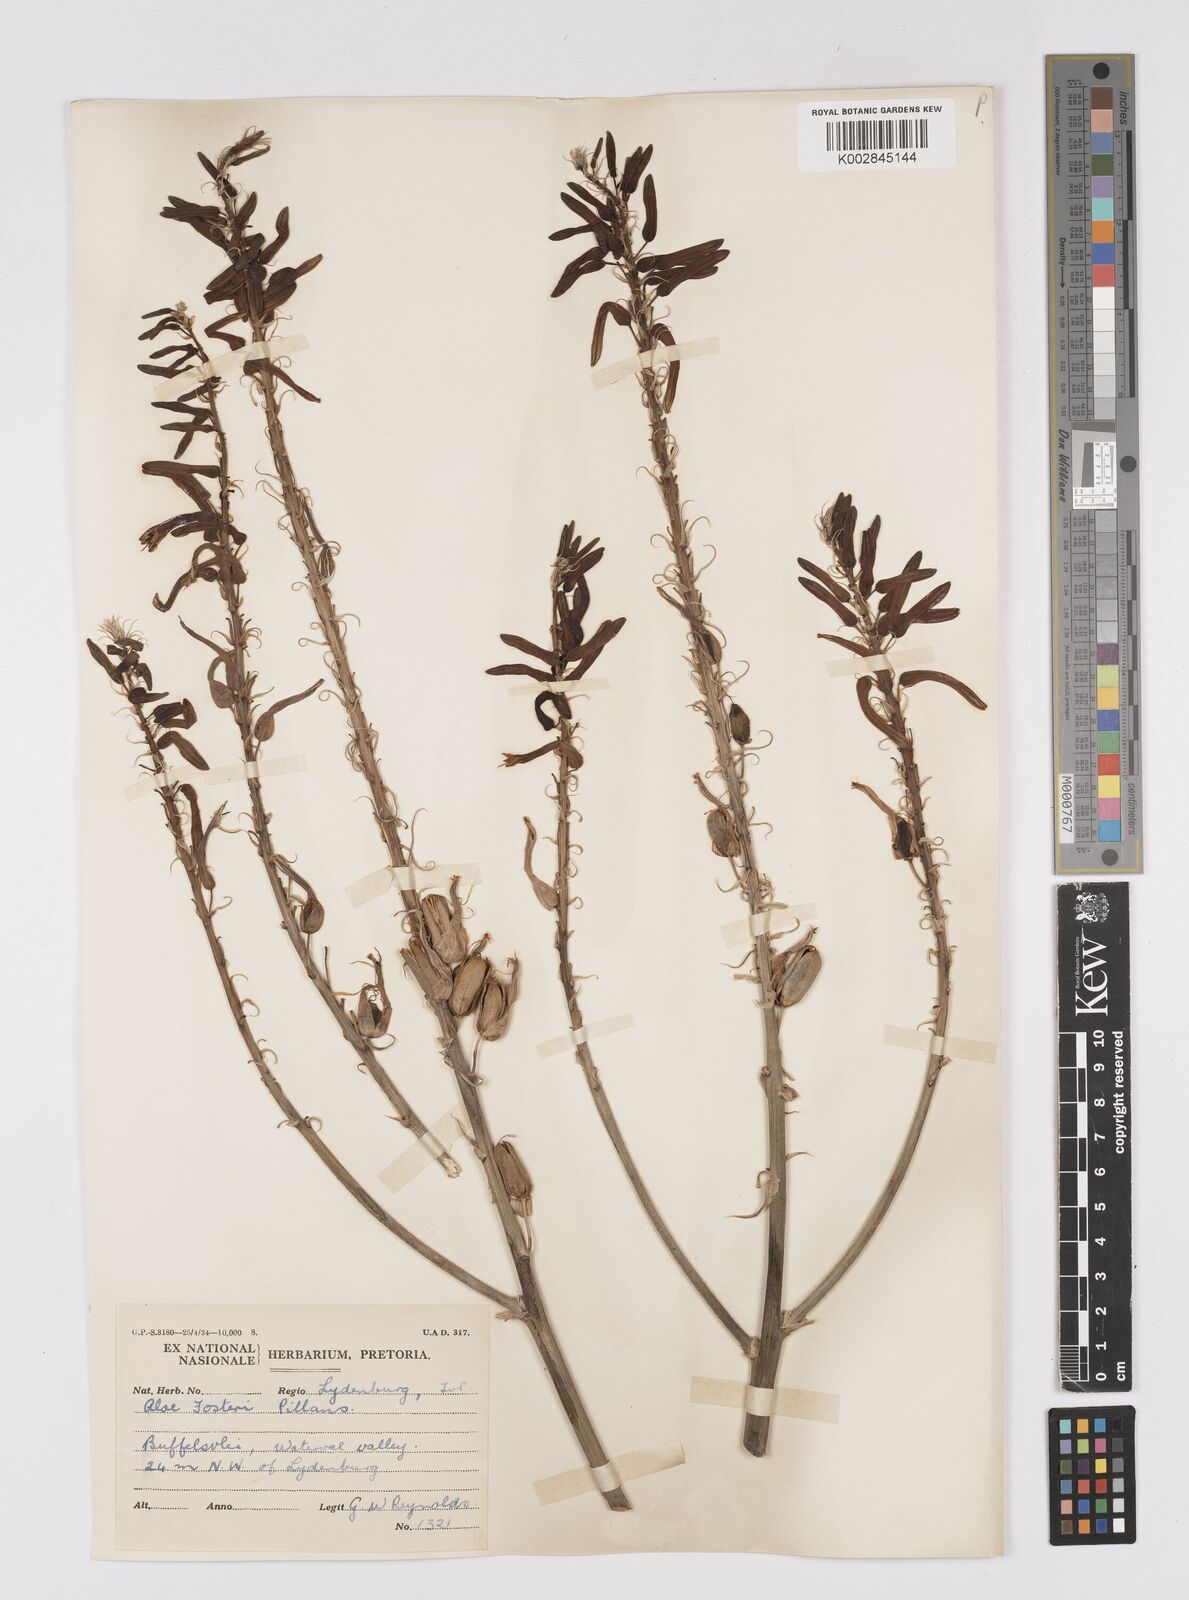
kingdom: Plantae
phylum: Tracheophyta
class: Liliopsida
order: Asparagales
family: Asphodelaceae
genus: Aloe
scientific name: Aloe fosteri
